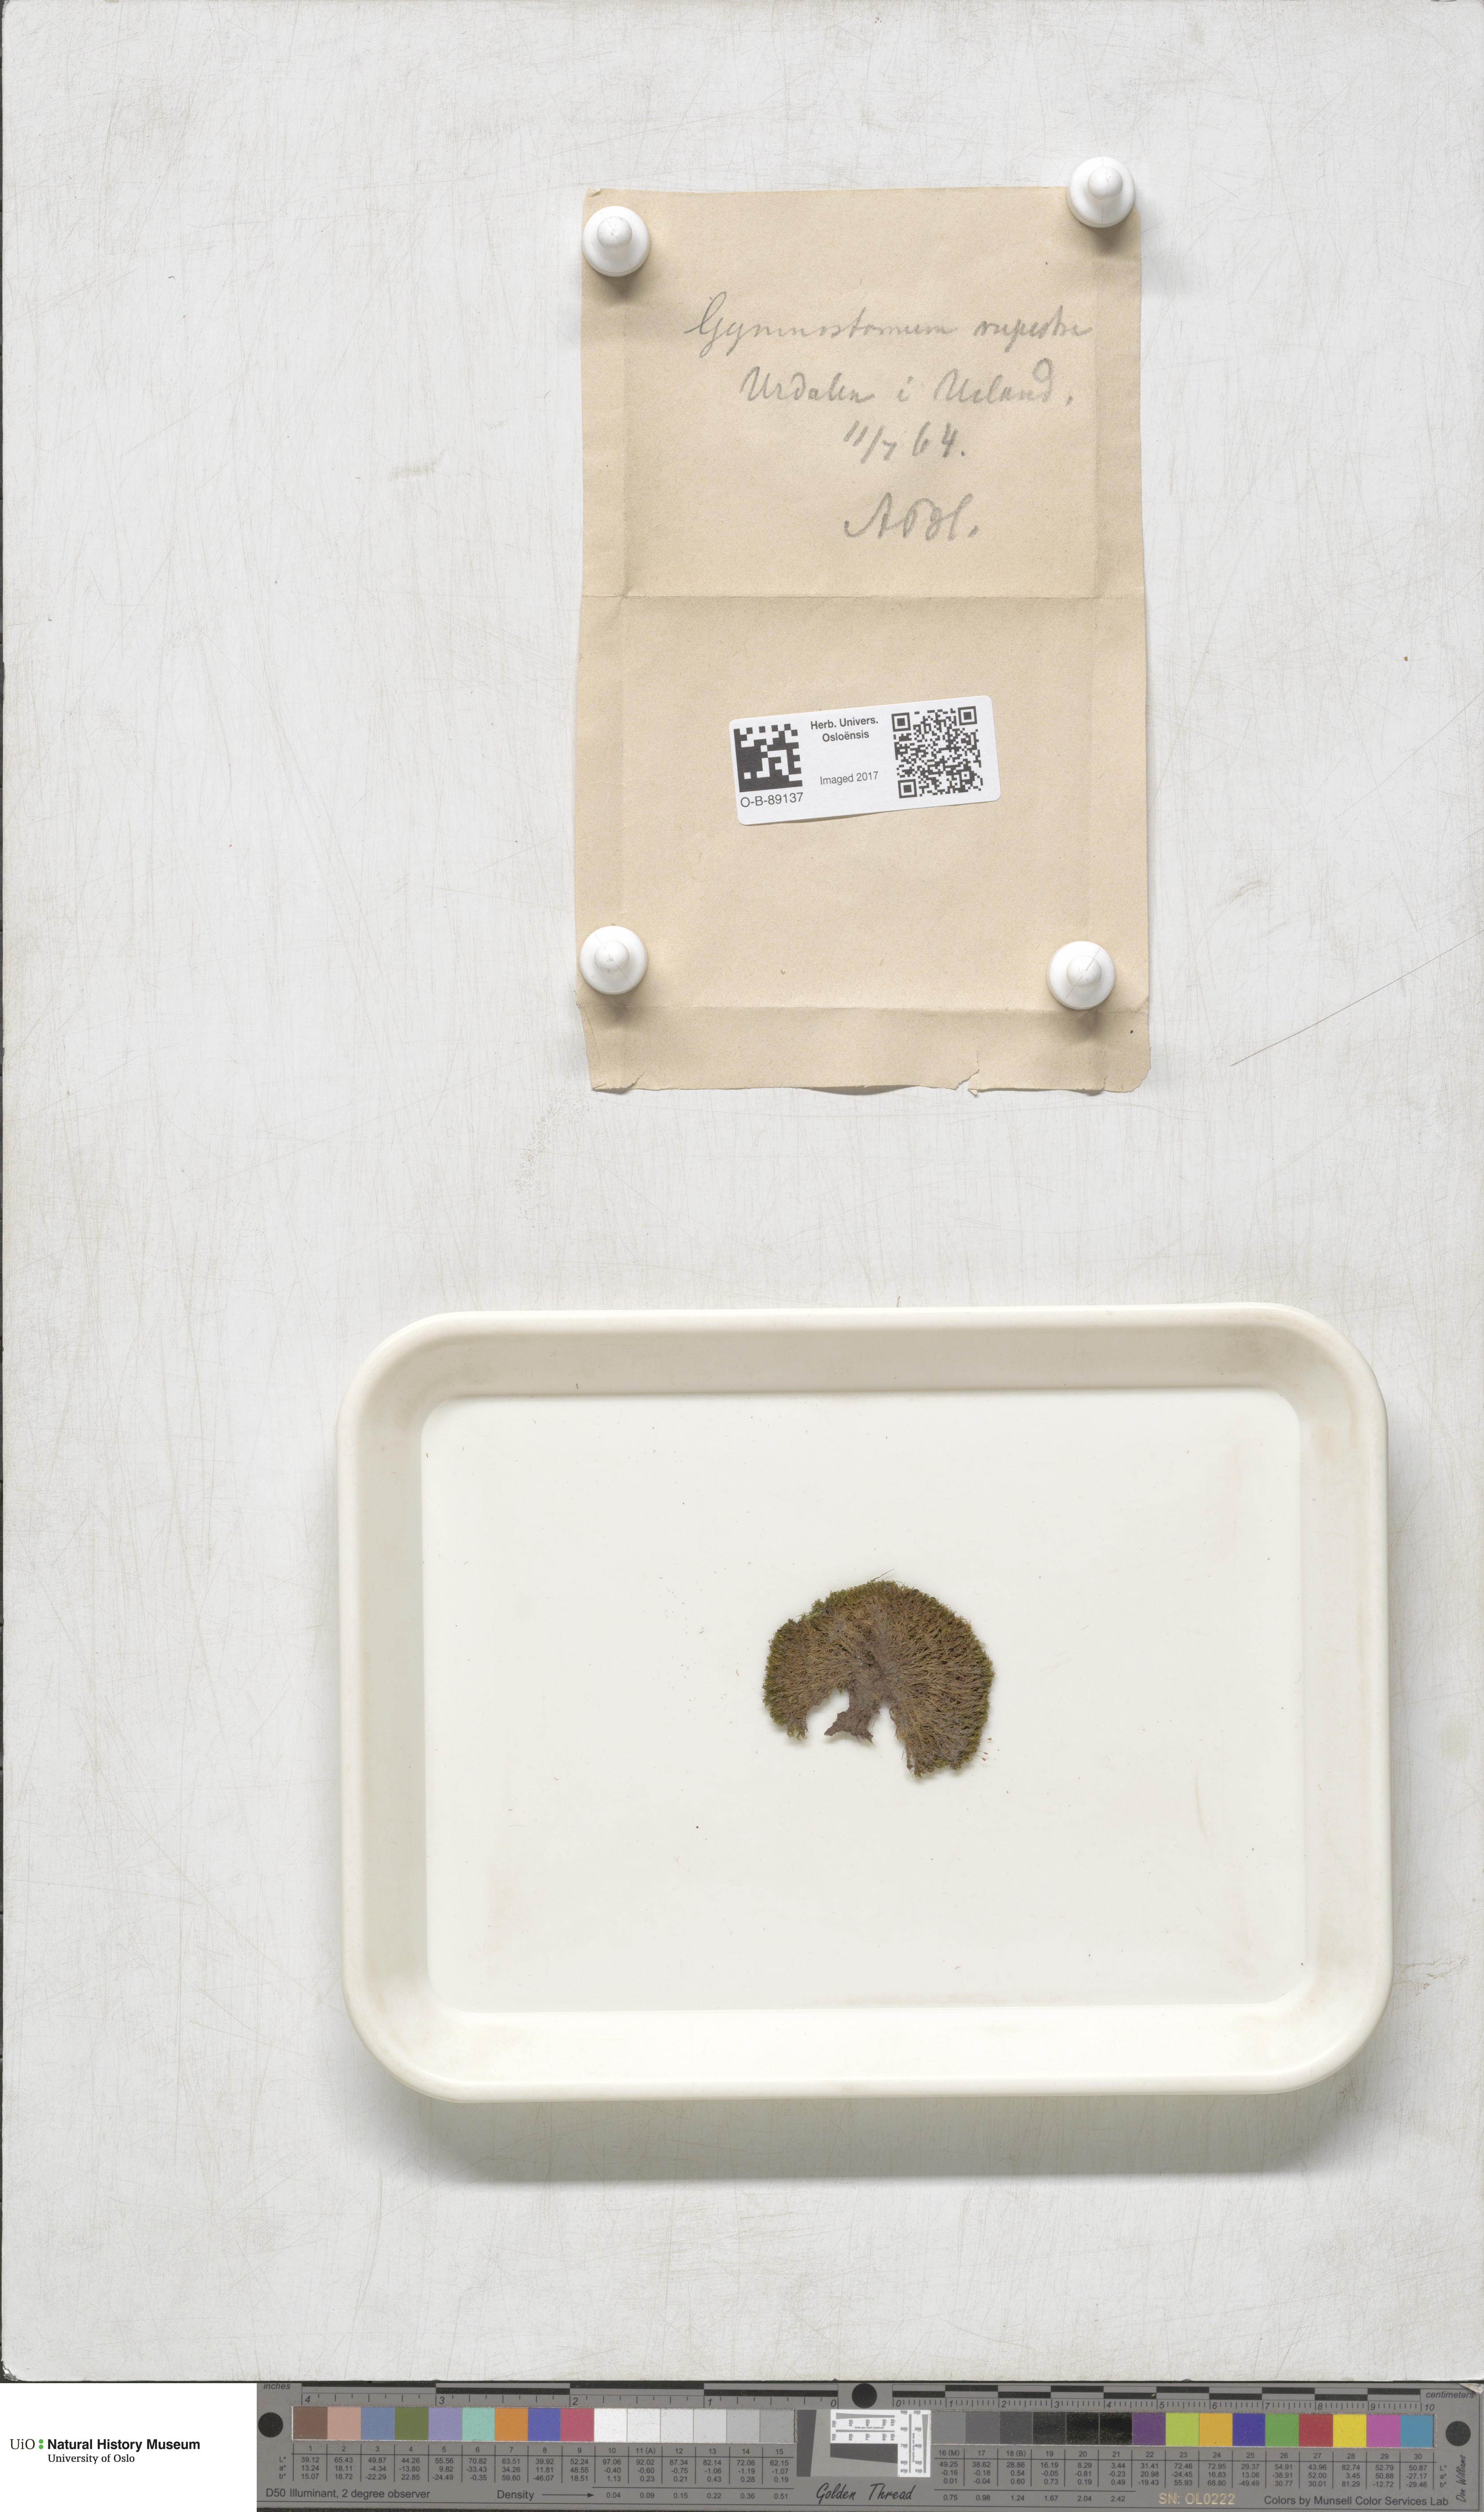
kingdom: Plantae
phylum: Bryophyta
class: Bryopsida
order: Pottiales
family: Pottiaceae
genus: Gymnostomum
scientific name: Gymnostomum aeruginosum
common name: Verdigris tufa-moss
